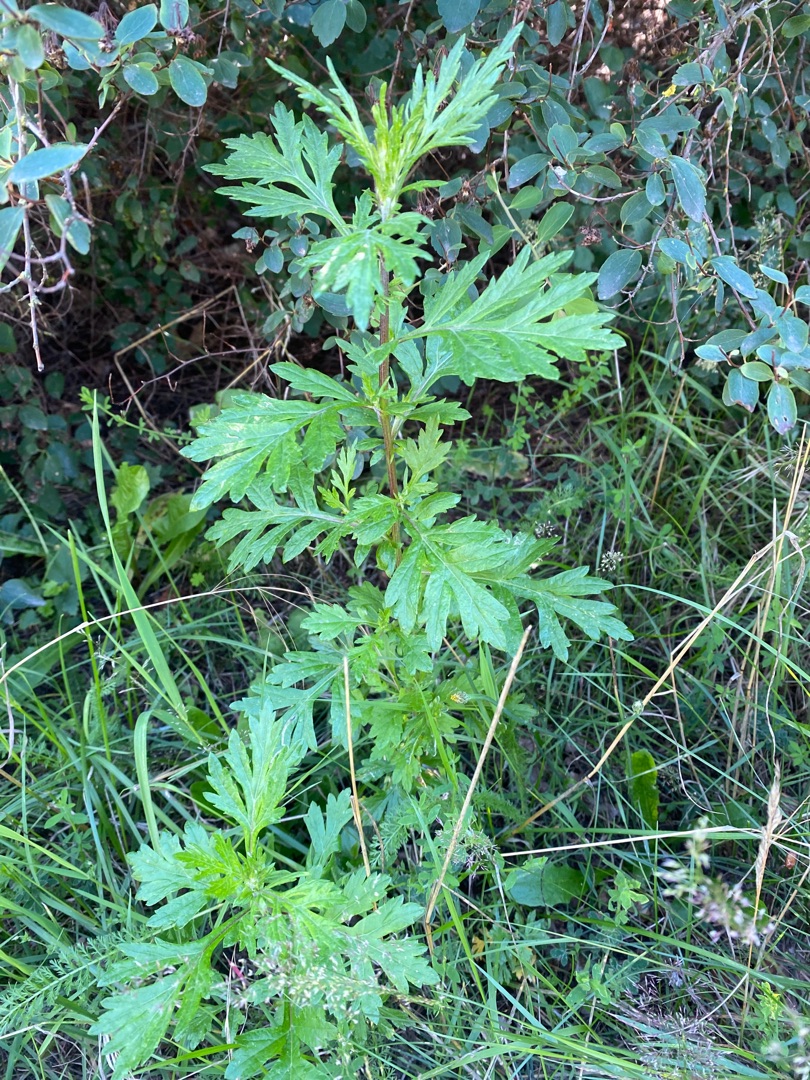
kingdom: Plantae
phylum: Tracheophyta
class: Magnoliopsida
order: Asterales
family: Asteraceae
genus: Artemisia
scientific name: Artemisia vulgaris
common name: Grå-bynke
